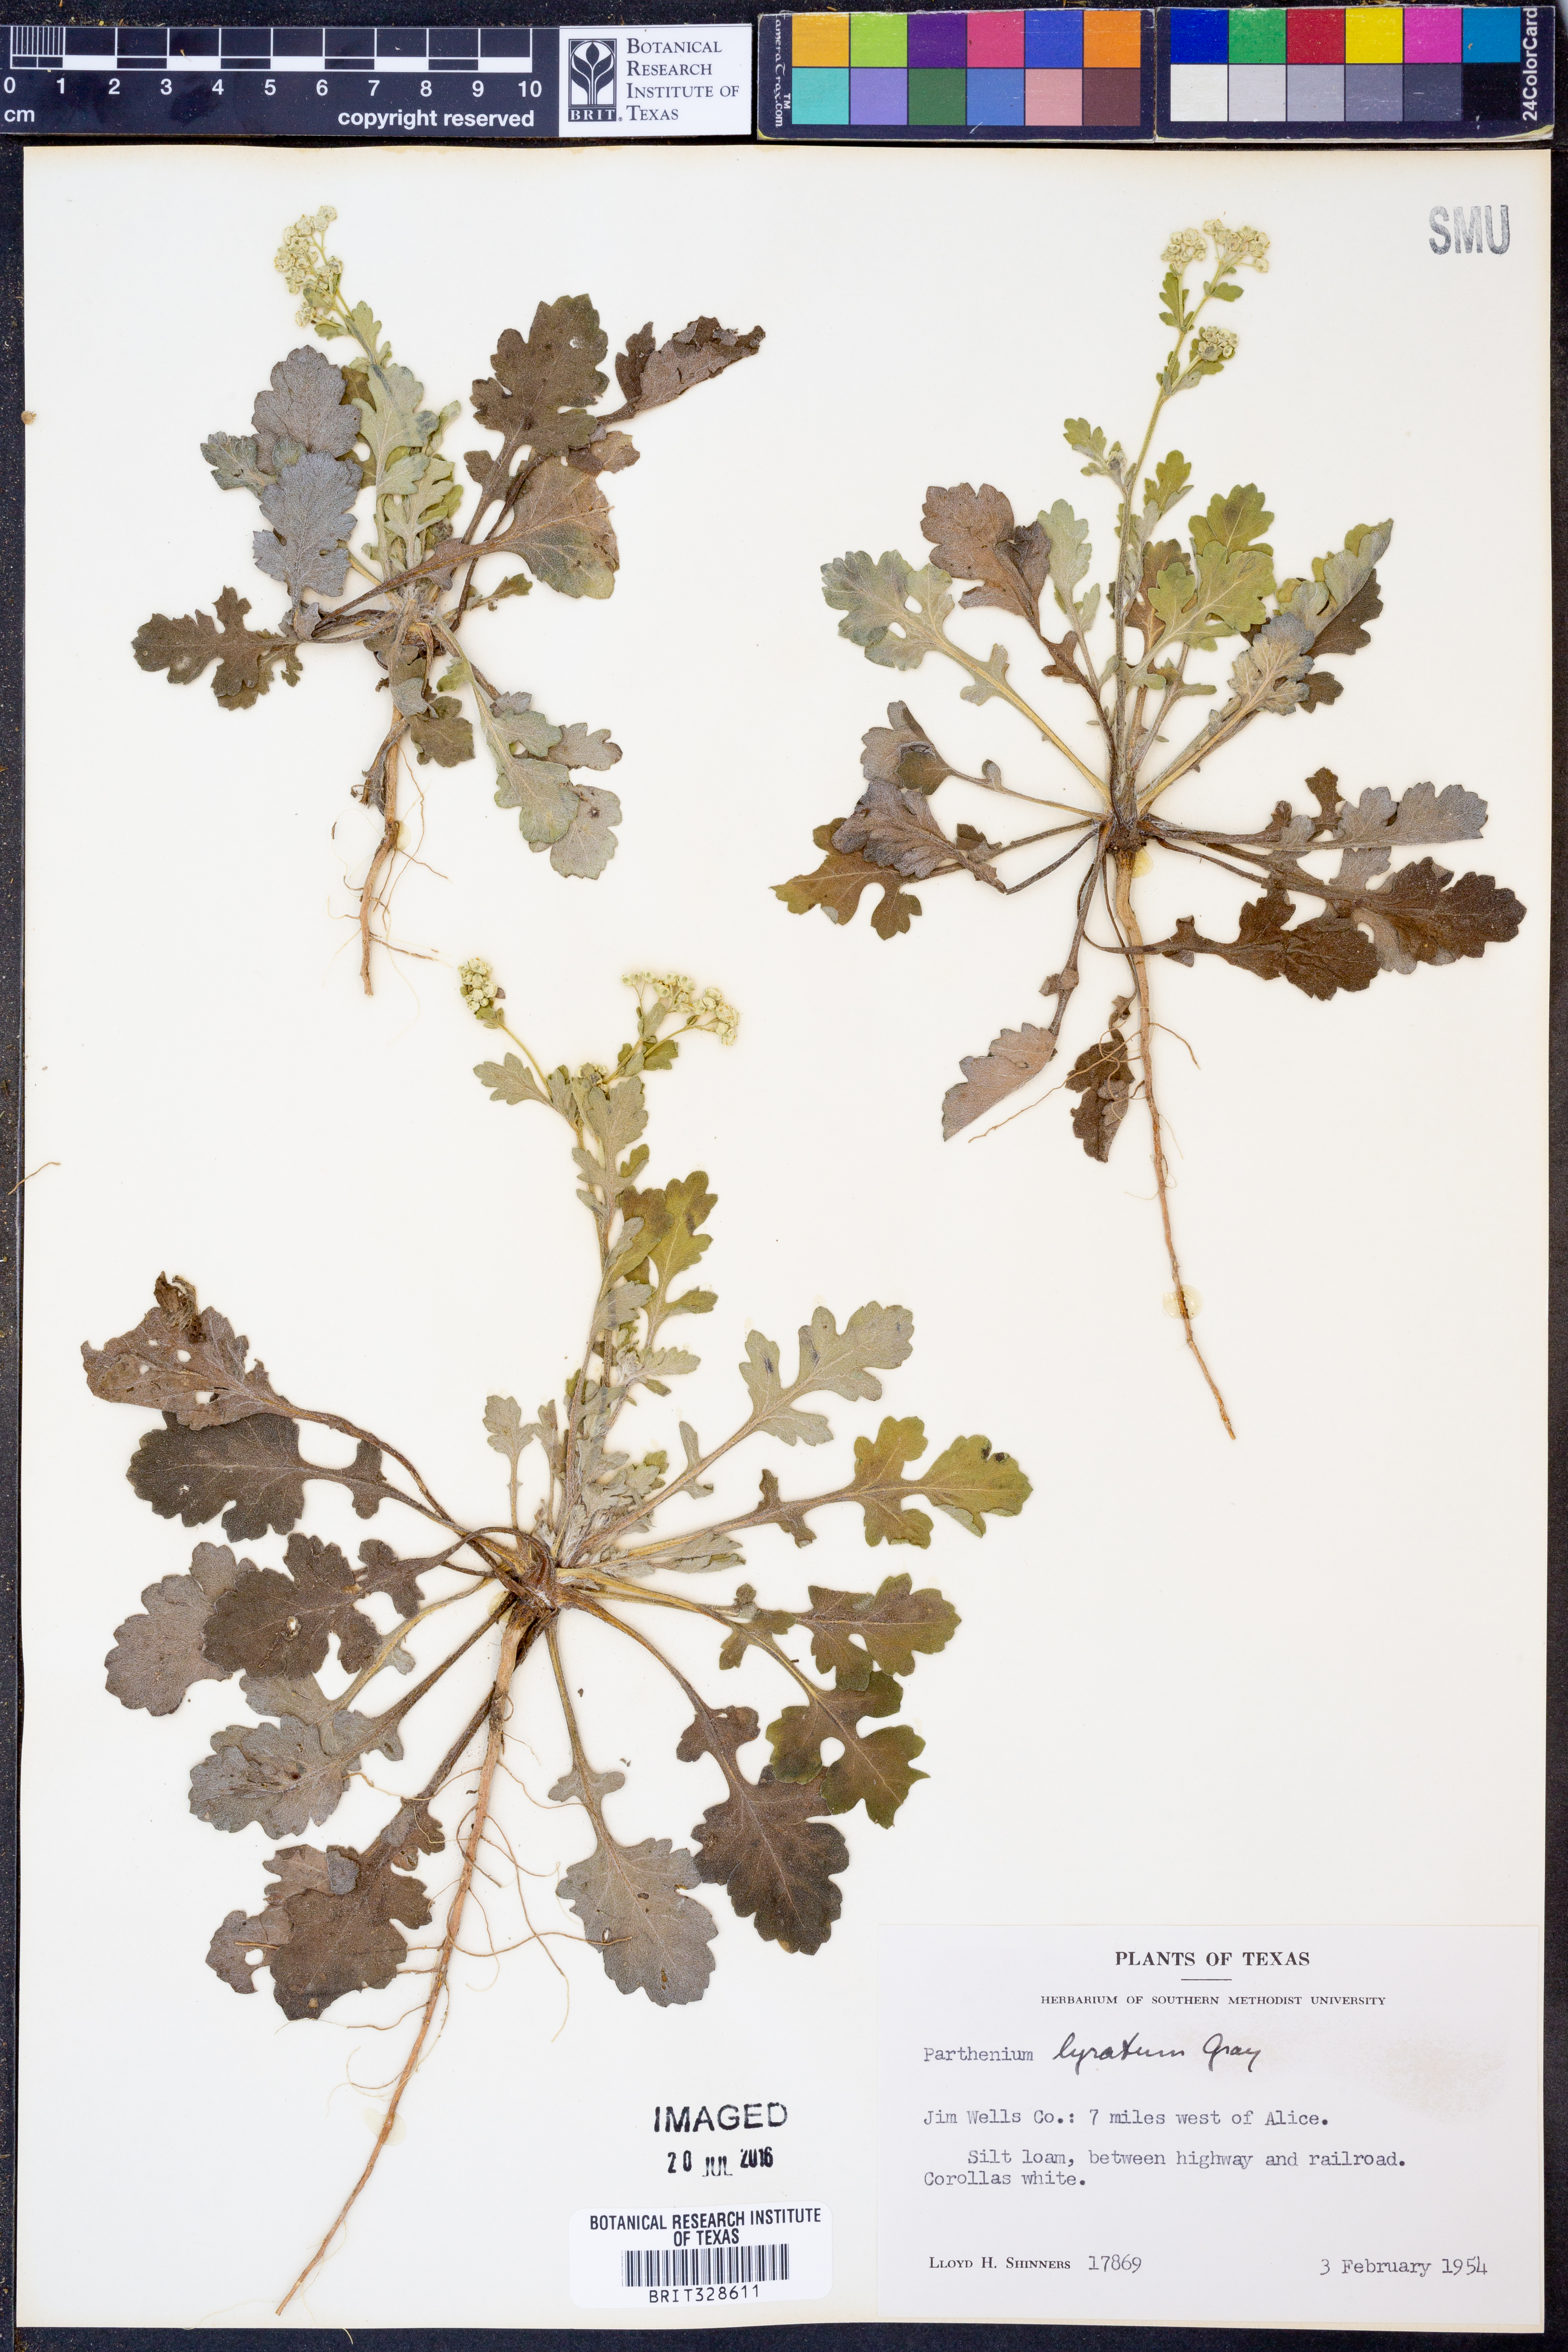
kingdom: Plantae
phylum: Tracheophyta
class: Magnoliopsida
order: Asterales
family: Asteraceae
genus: Parthenium
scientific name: Parthenium confertum
